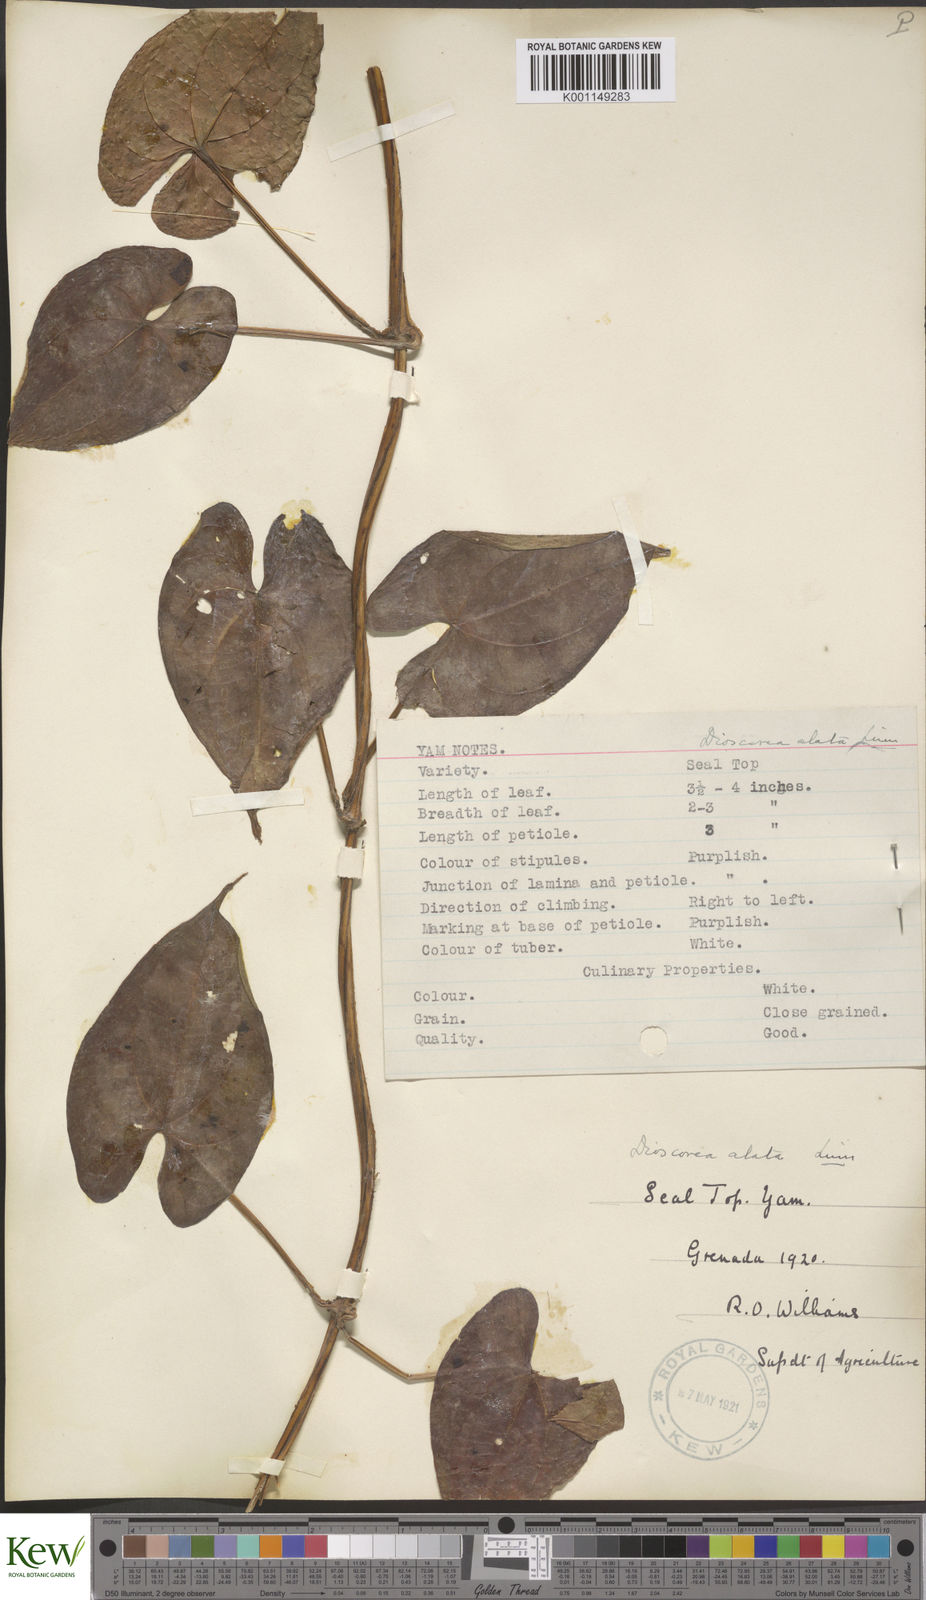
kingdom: Plantae
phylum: Tracheophyta
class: Liliopsida
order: Dioscoreales
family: Dioscoreaceae
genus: Dioscorea
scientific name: Dioscorea alata
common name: Water yam
